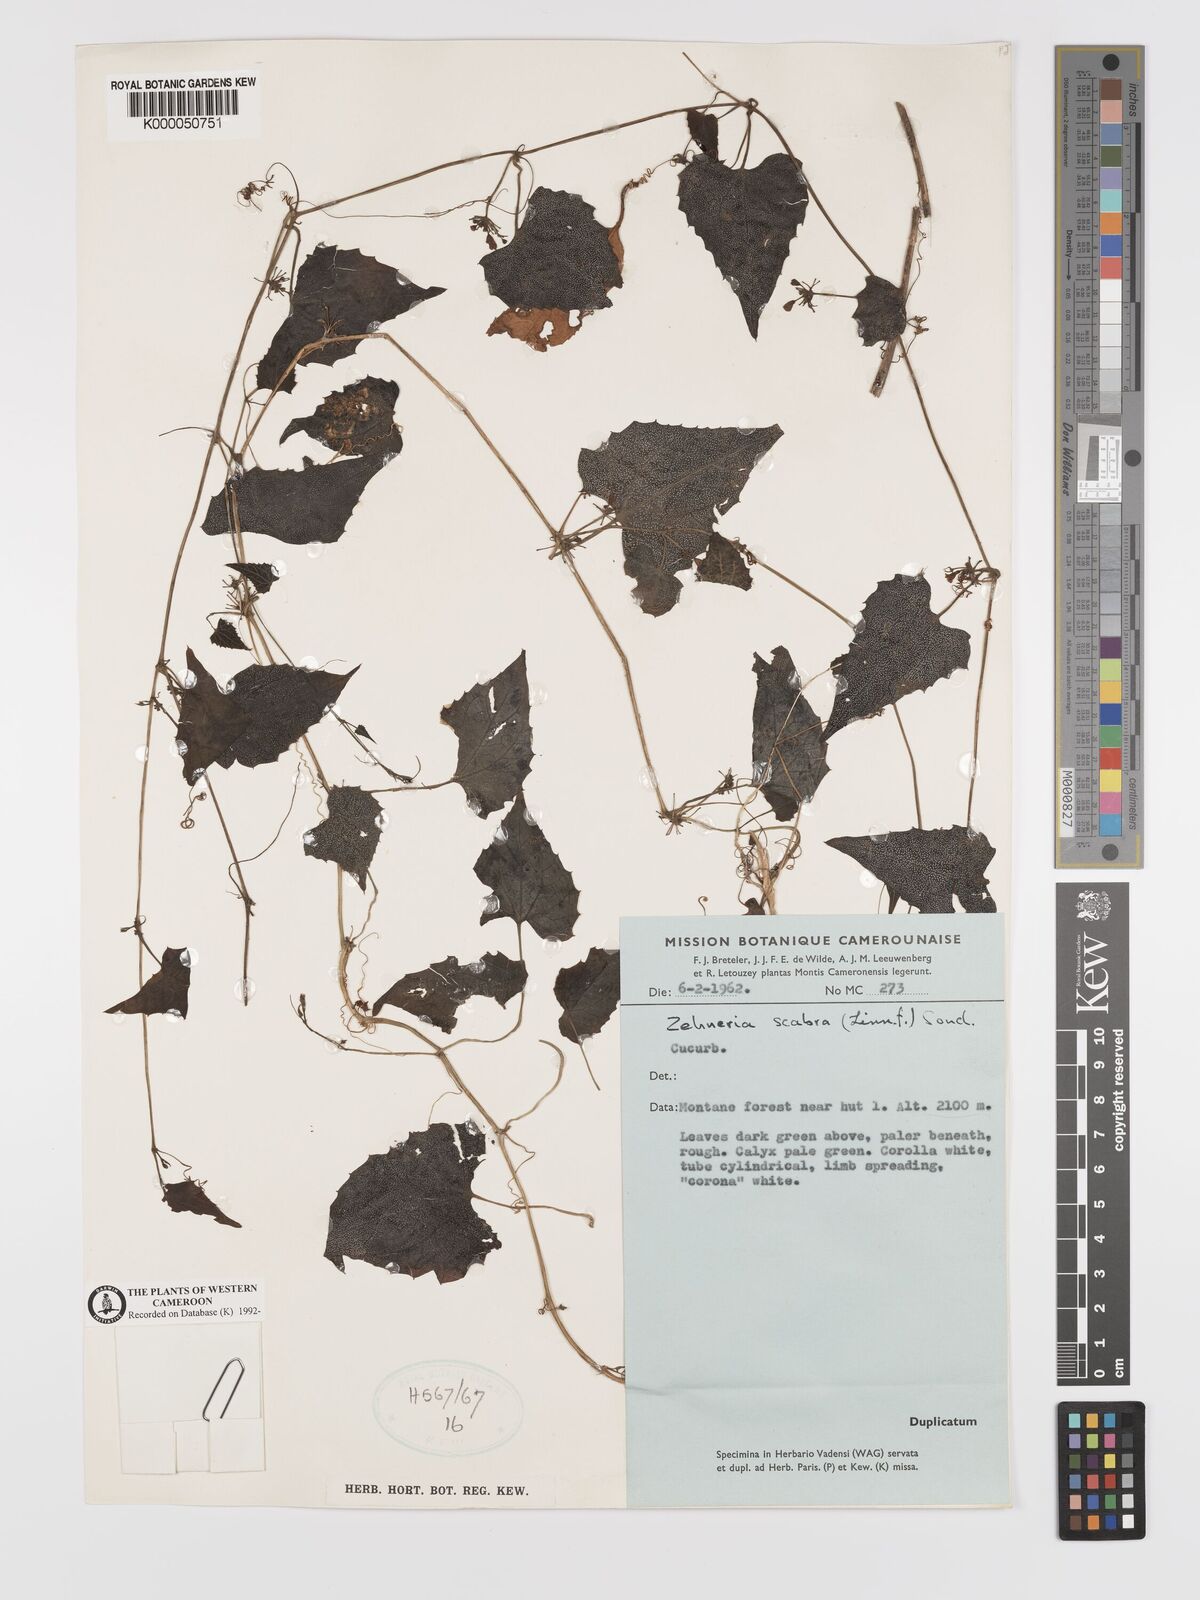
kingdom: Plantae
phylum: Tracheophyta
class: Magnoliopsida
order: Cucurbitales
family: Cucurbitaceae
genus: Zehneria
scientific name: Zehneria scabra
